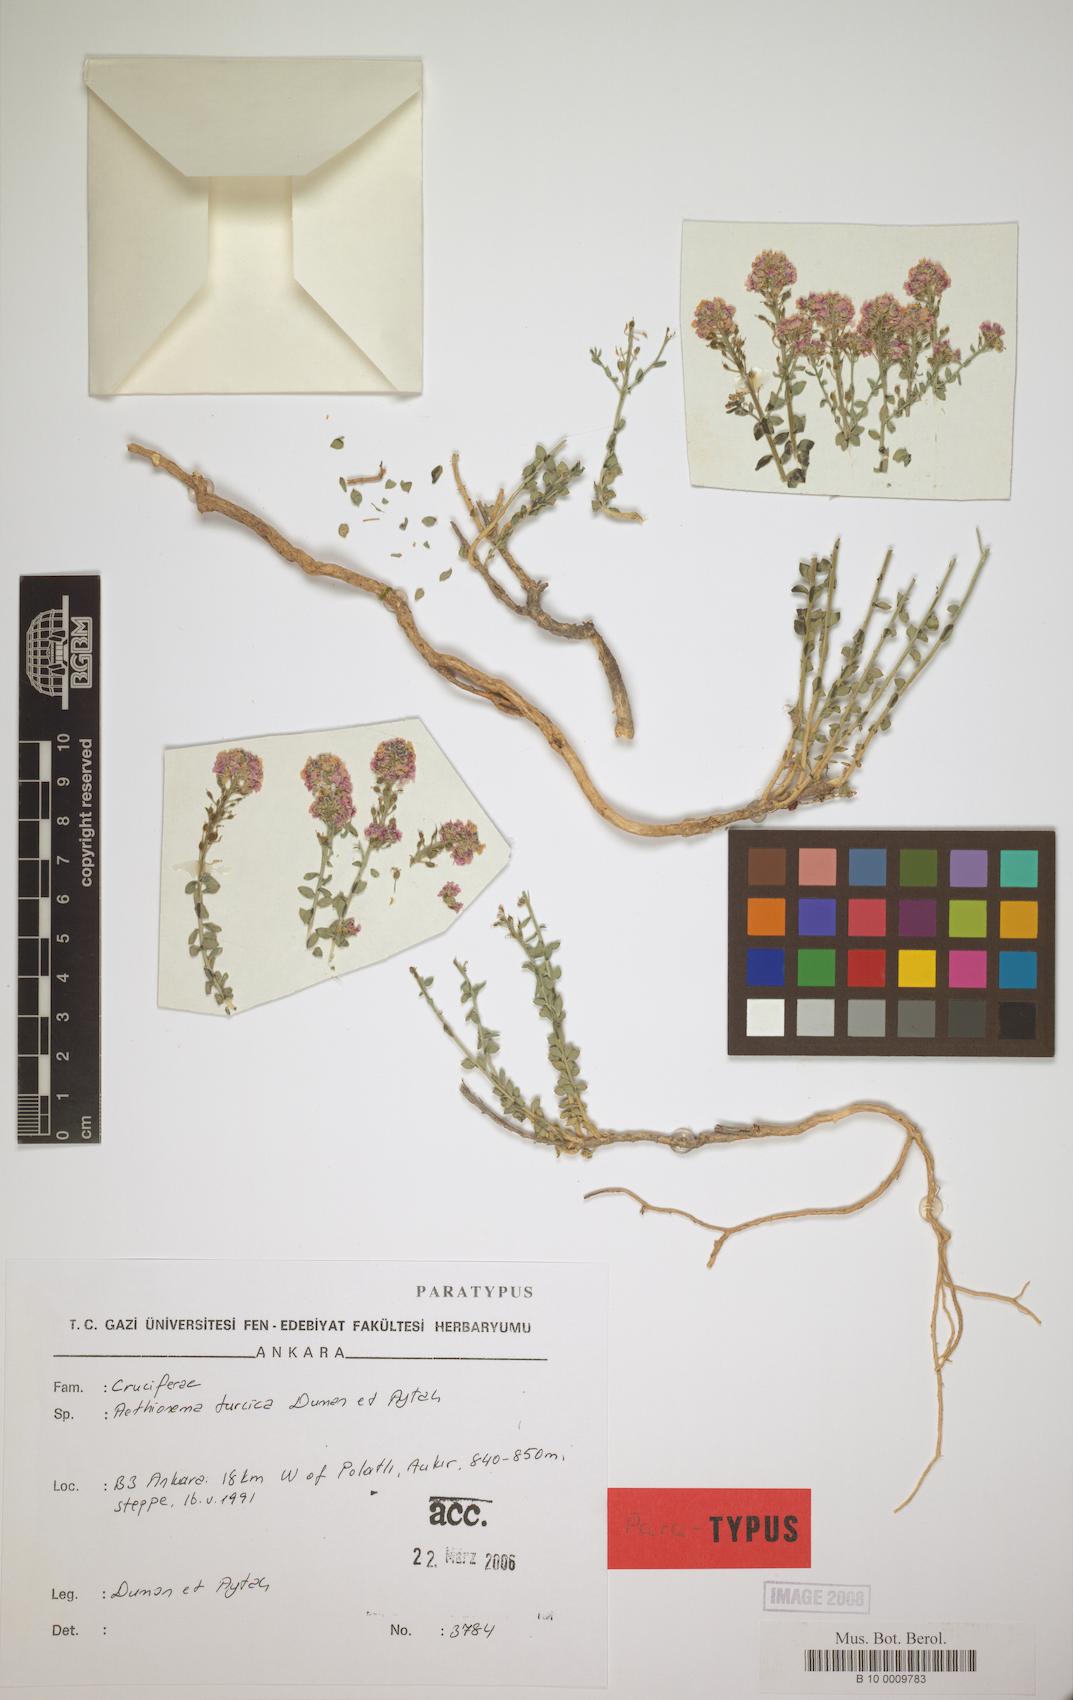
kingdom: Plantae
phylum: Tracheophyta
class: Magnoliopsida
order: Brassicales
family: Brassicaceae
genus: Aethionema
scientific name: Aethionema turcica
